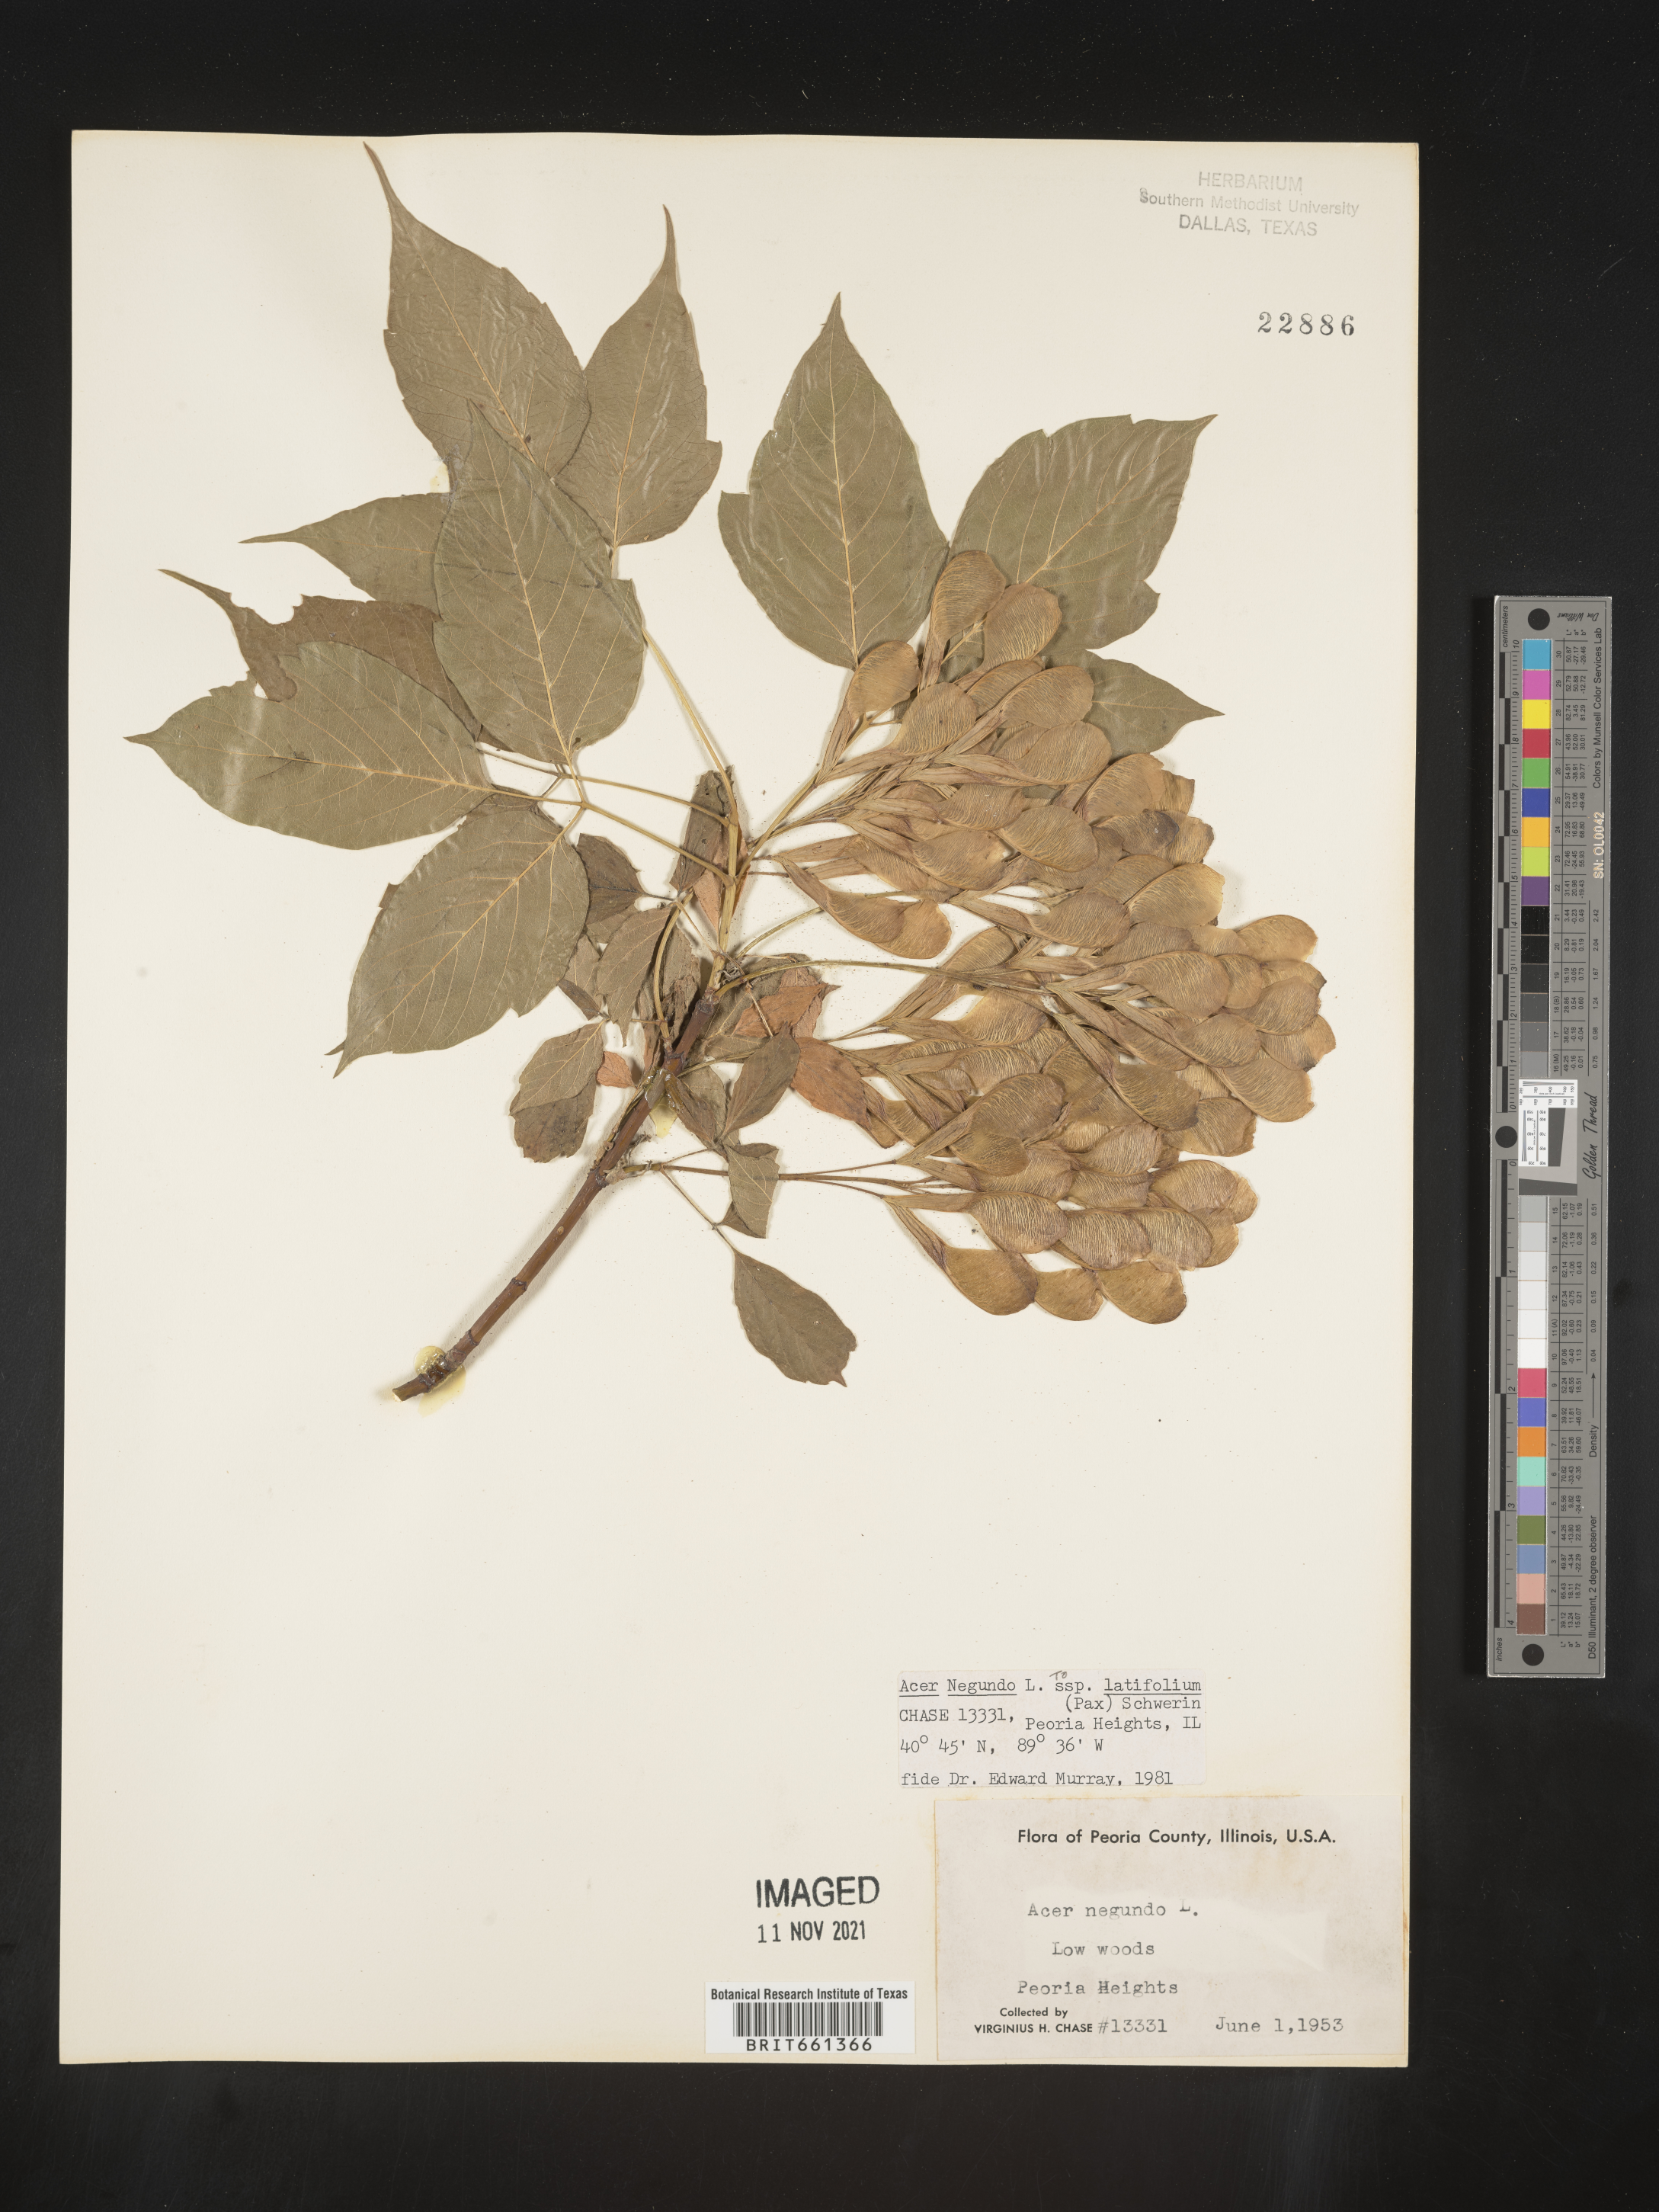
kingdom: Plantae
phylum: Tracheophyta
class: Magnoliopsida
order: Sapindales
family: Sapindaceae
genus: Acer
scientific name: Acer negundo
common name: Ashleaf maple
